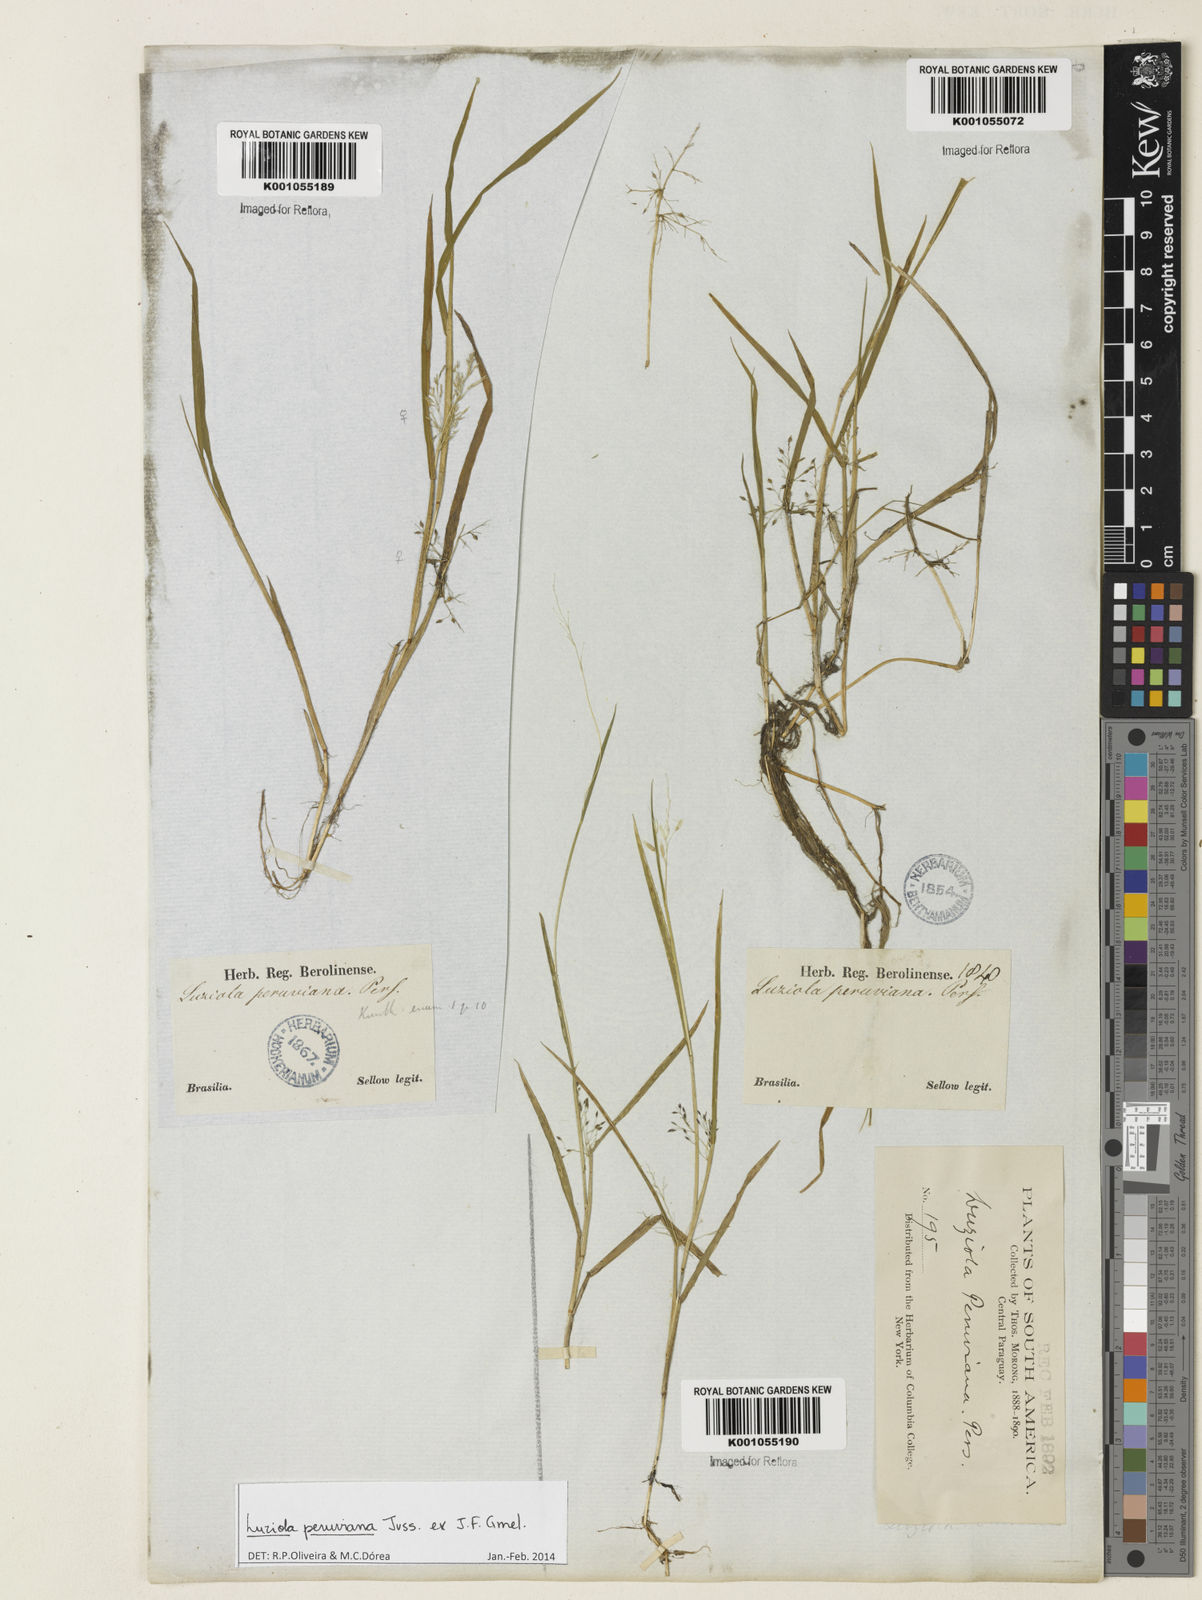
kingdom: Plantae
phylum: Tracheophyta
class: Liliopsida
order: Poales
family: Poaceae
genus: Luziola
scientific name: Luziola peruviana
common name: Peruvian watergrass
